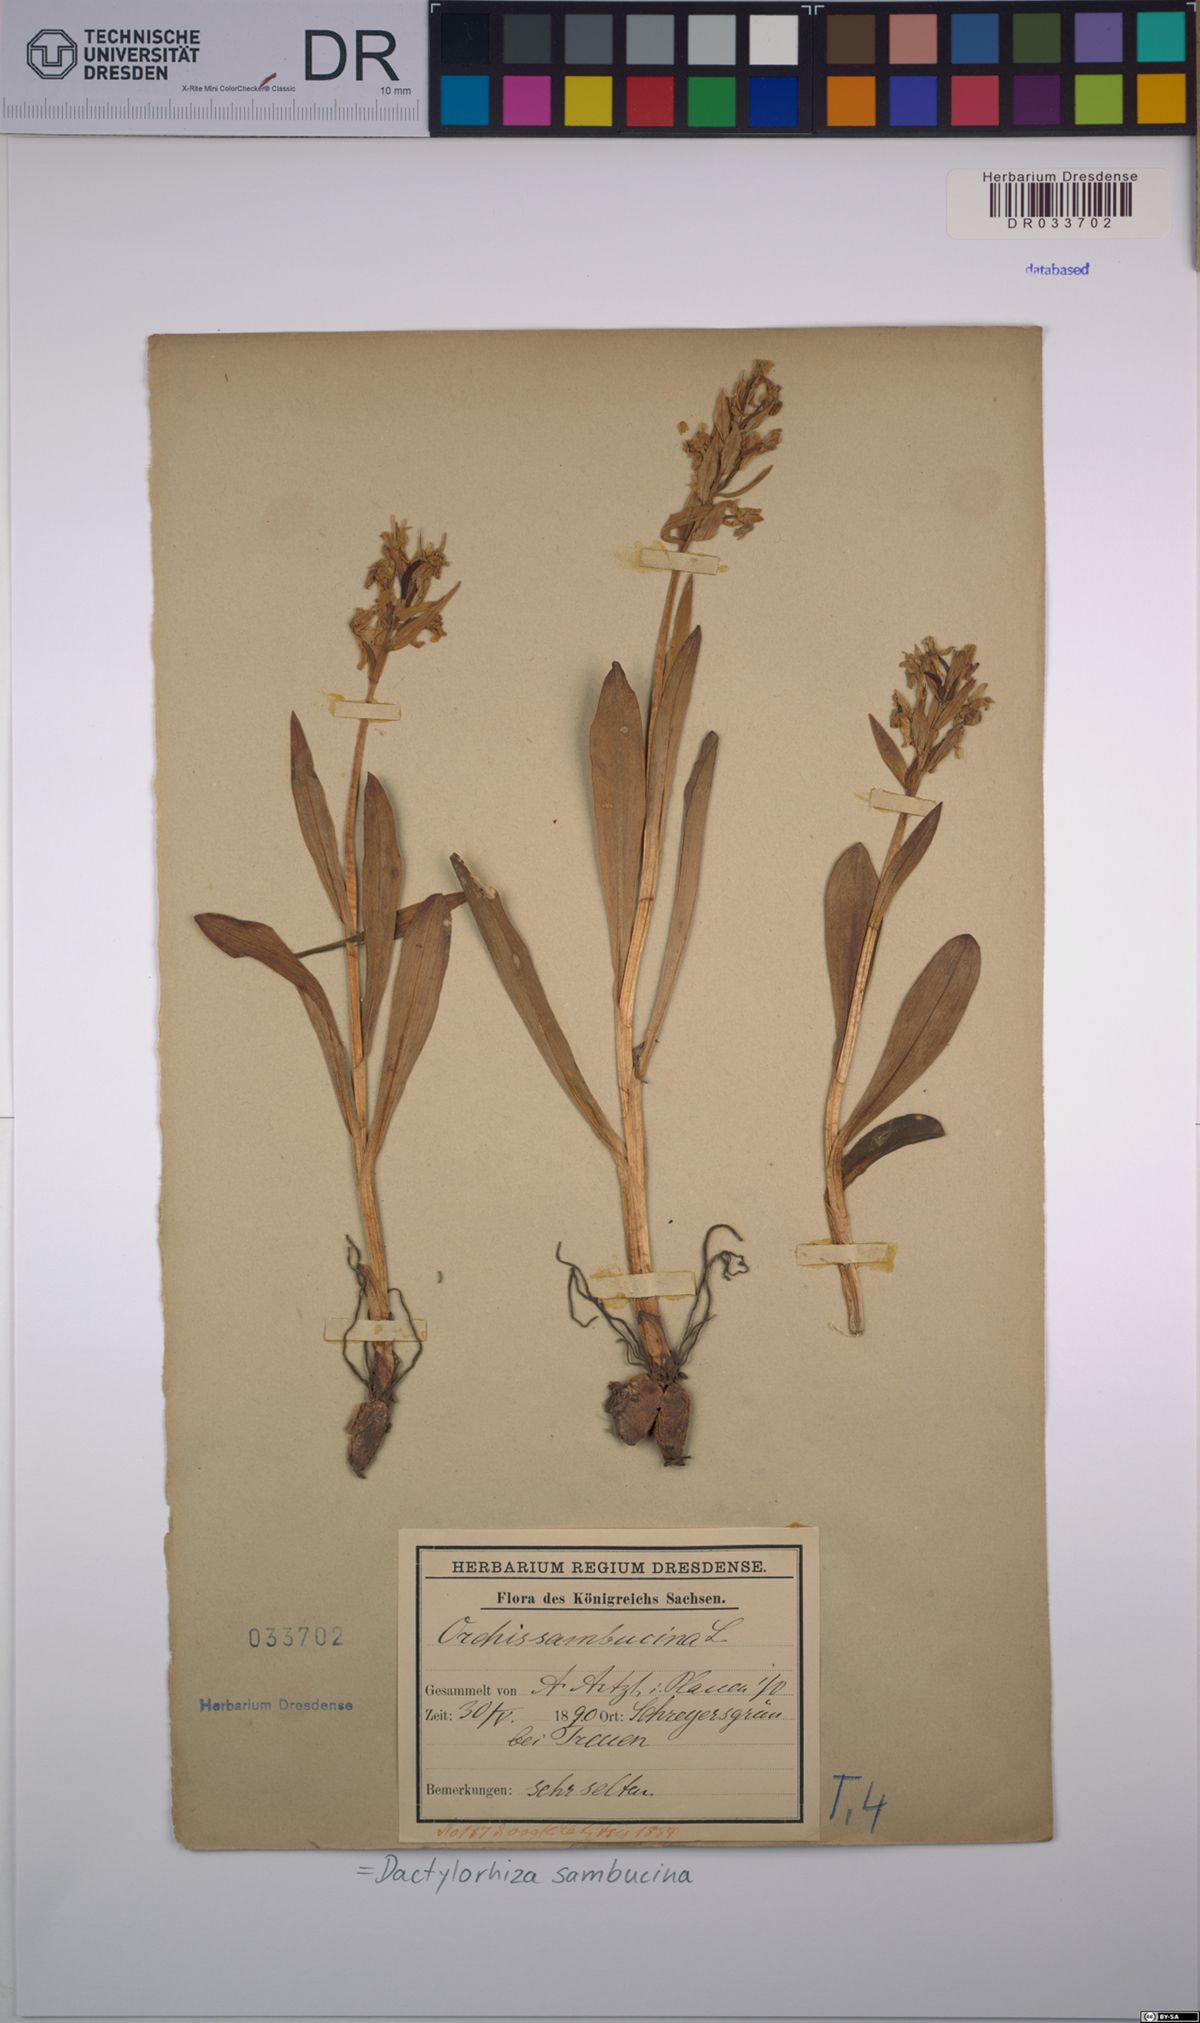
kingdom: Plantae
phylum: Tracheophyta
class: Liliopsida
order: Asparagales
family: Orchidaceae
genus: Dactylorhiza
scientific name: Dactylorhiza sambucina
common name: Elder-flowered orchid
